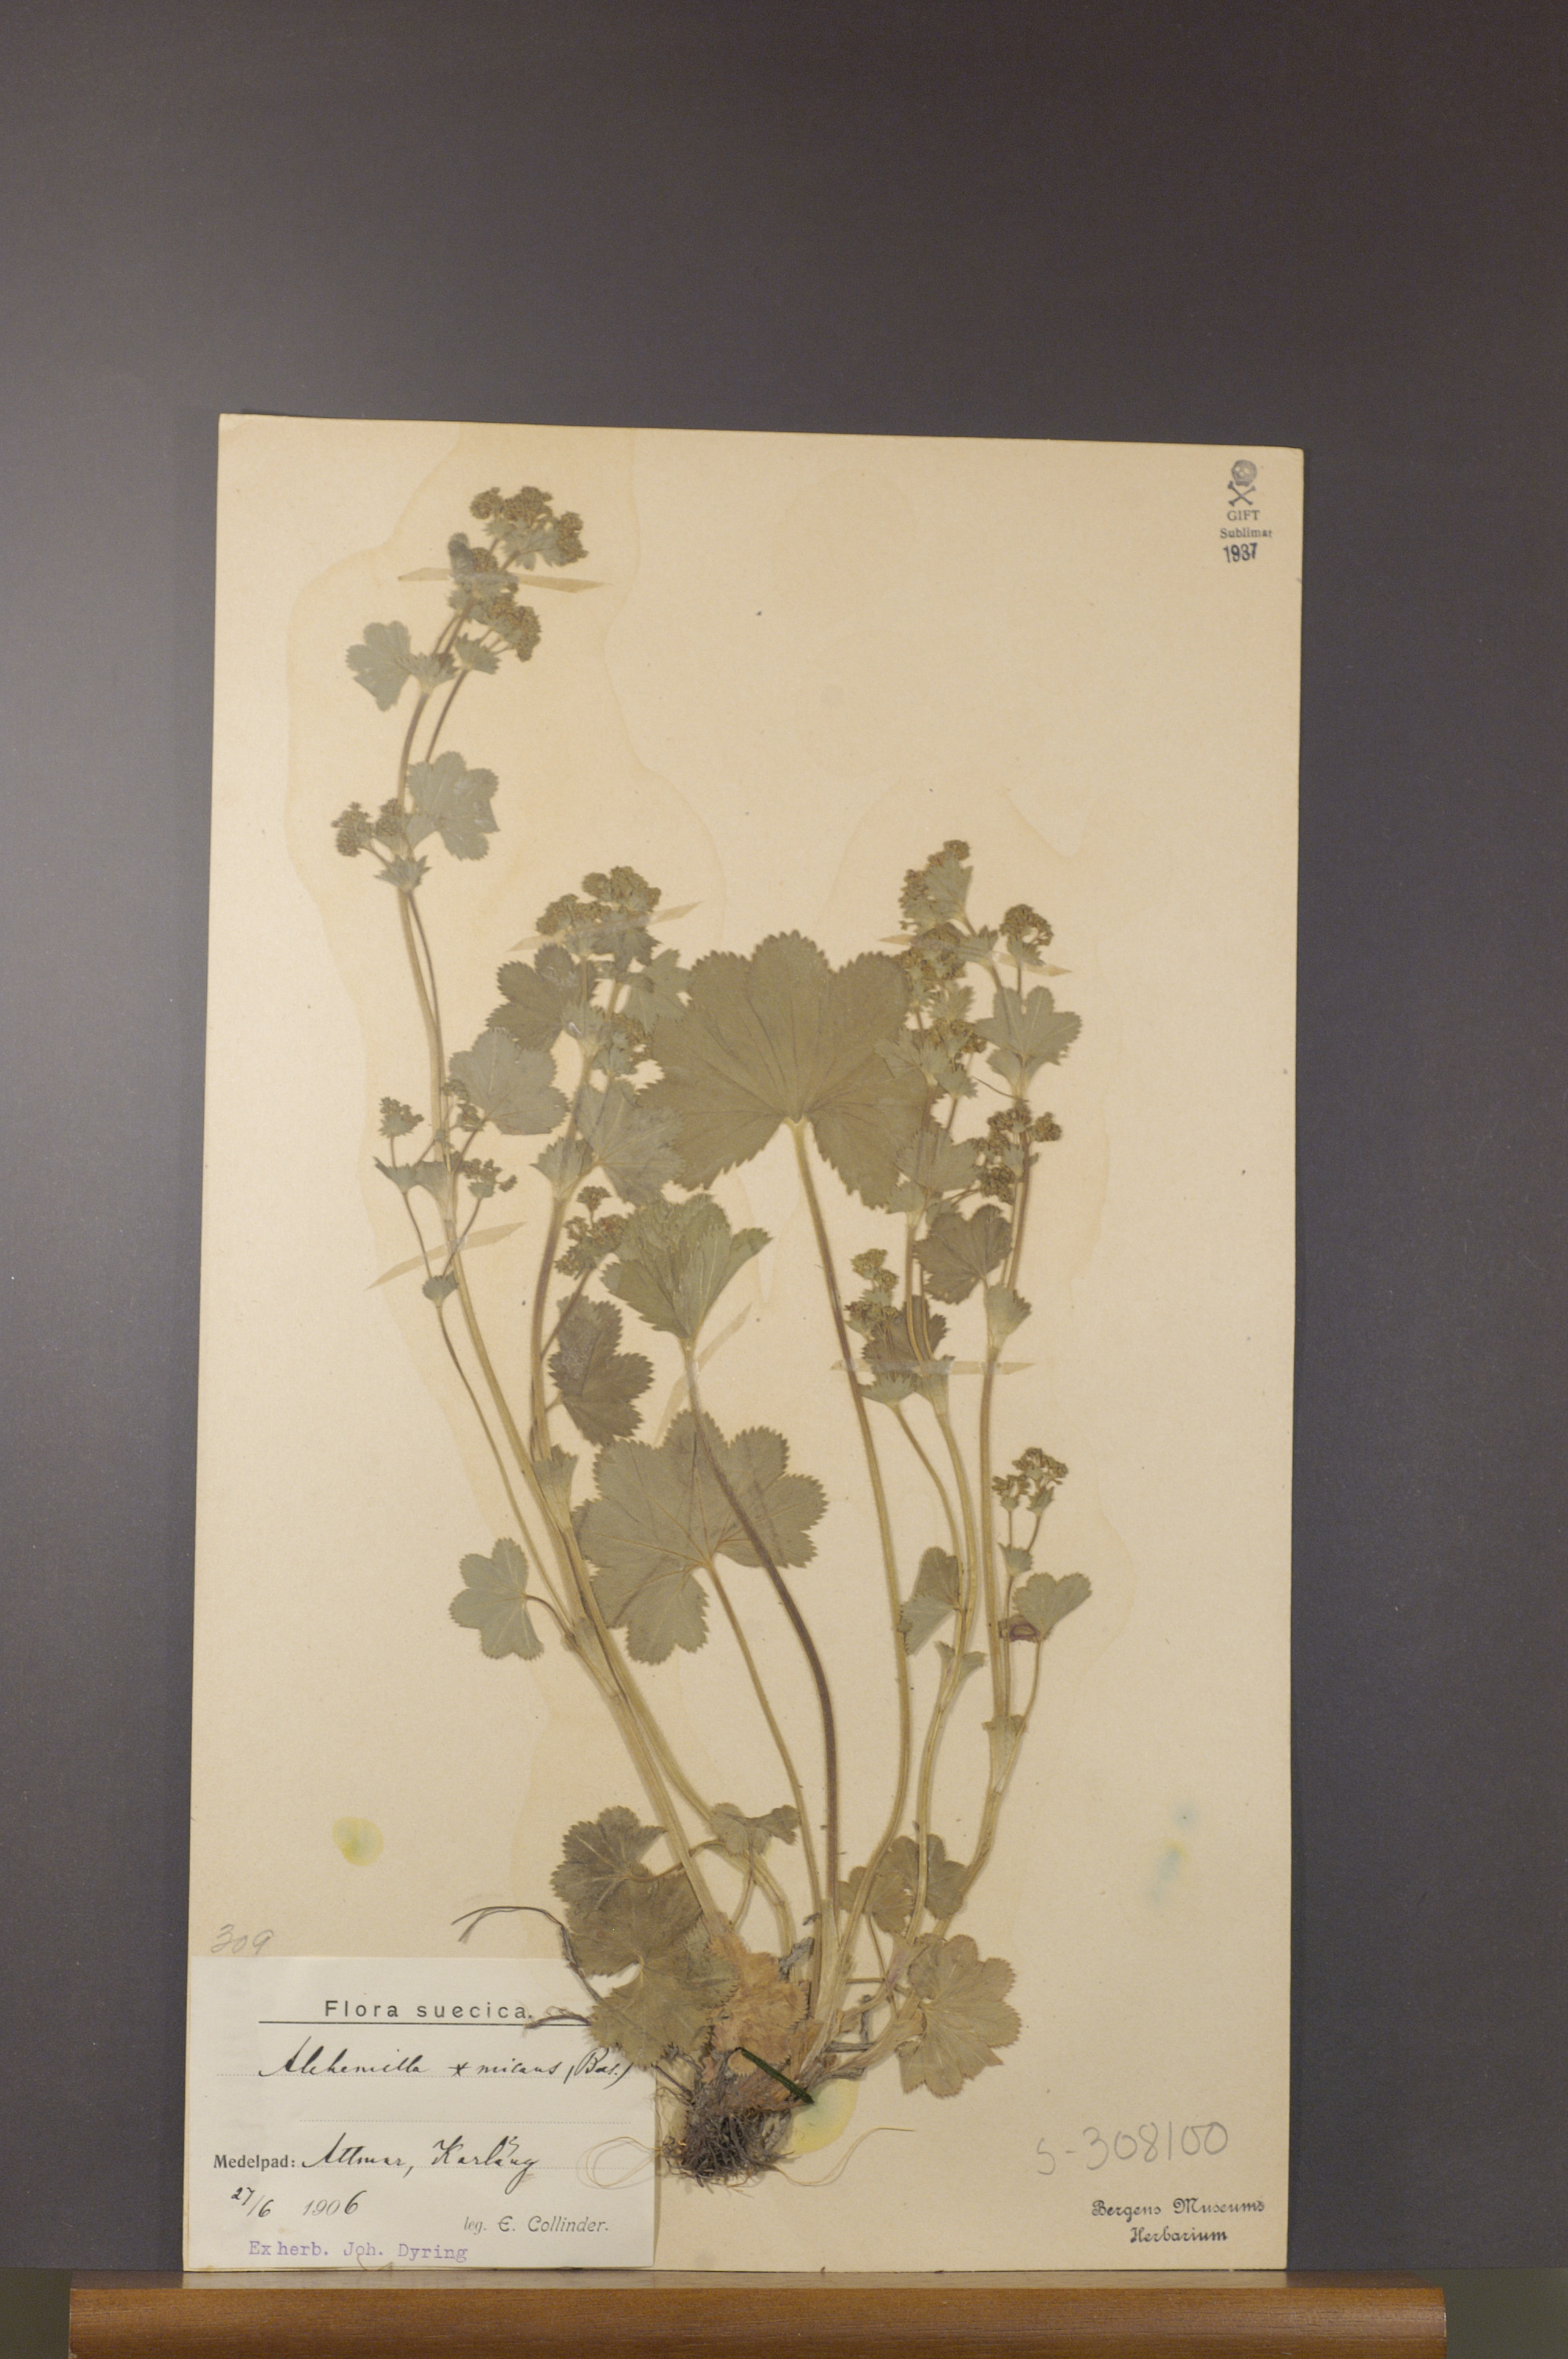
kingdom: Plantae
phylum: Tracheophyta
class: Magnoliopsida
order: Rosales
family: Rosaceae
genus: Alchemilla
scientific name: Alchemilla micans
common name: Gleaming lady's mantle
